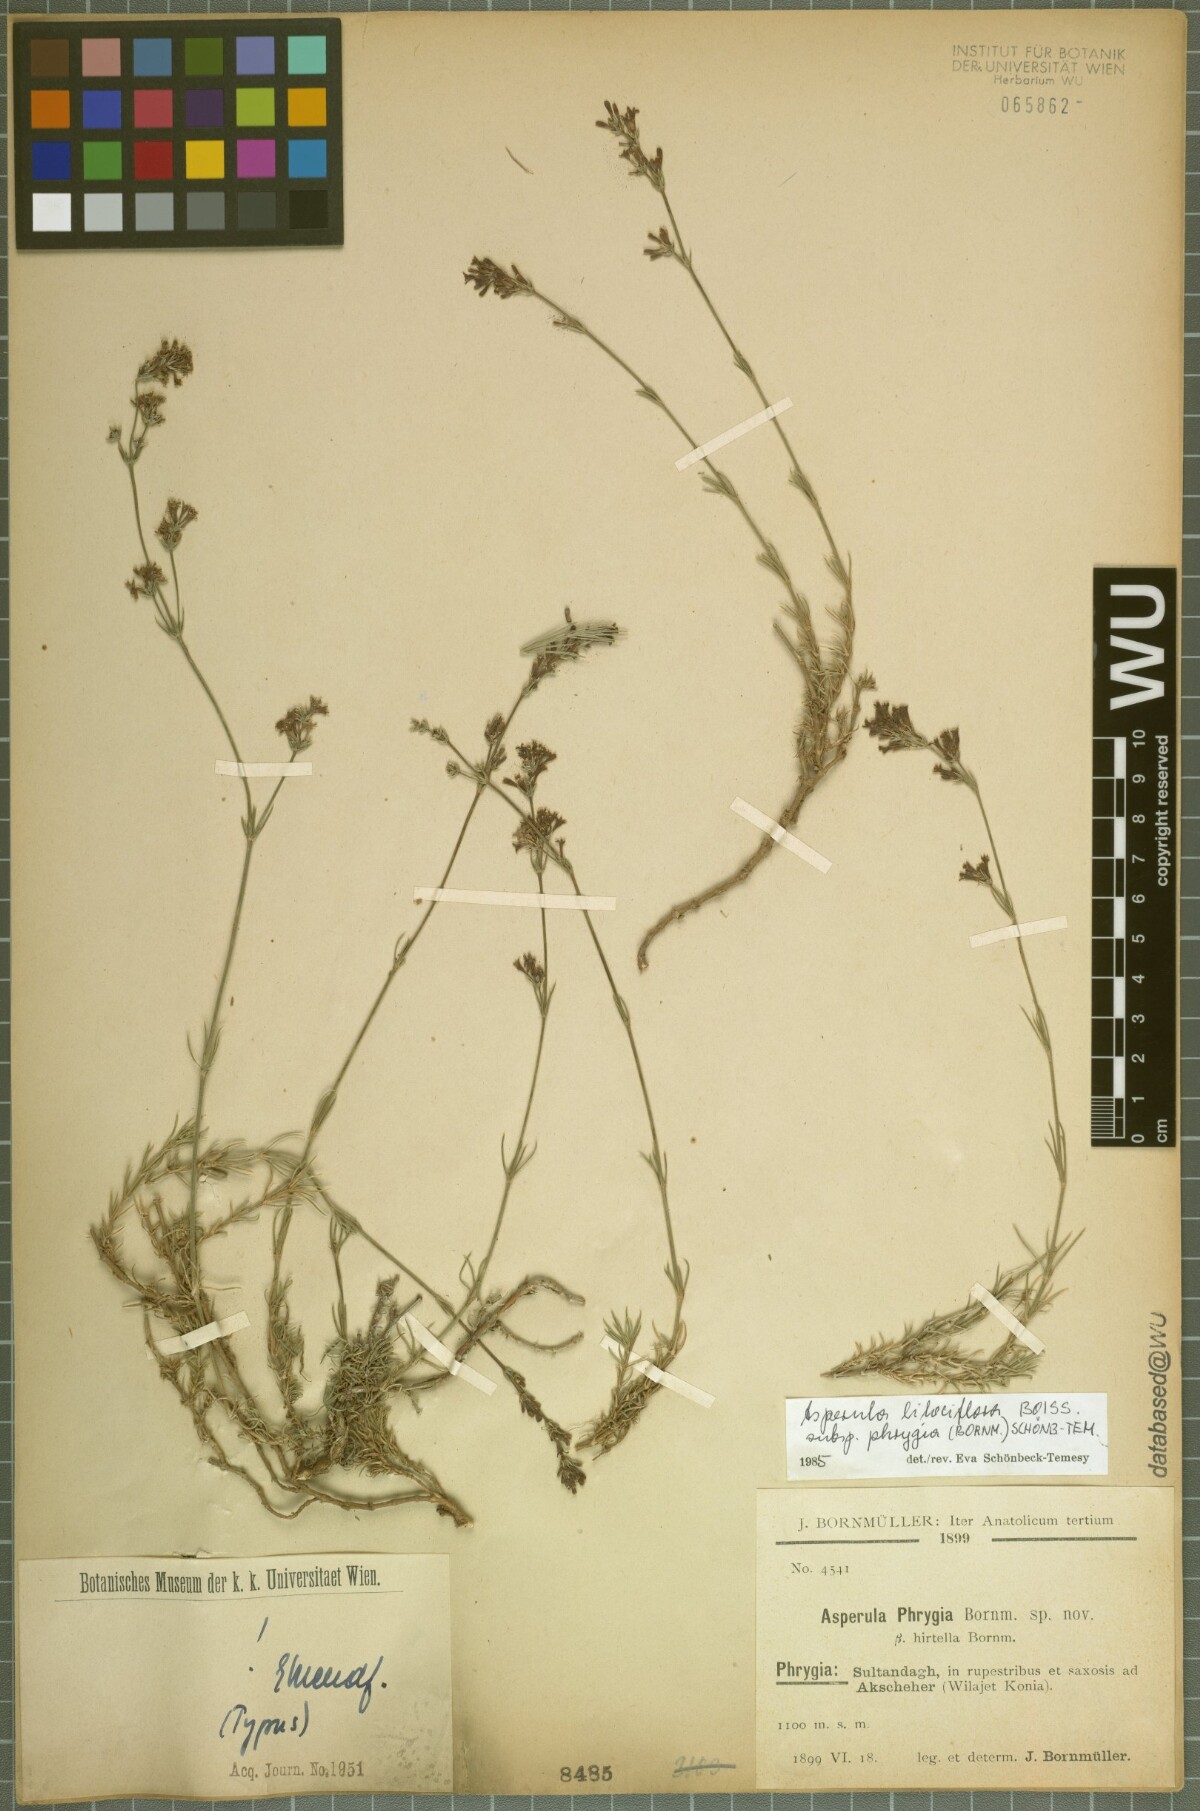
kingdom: Plantae
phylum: Tracheophyta
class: Magnoliopsida
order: Gentianales
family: Rubiaceae
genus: Cynanchica
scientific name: Cynanchica lilaciflora
